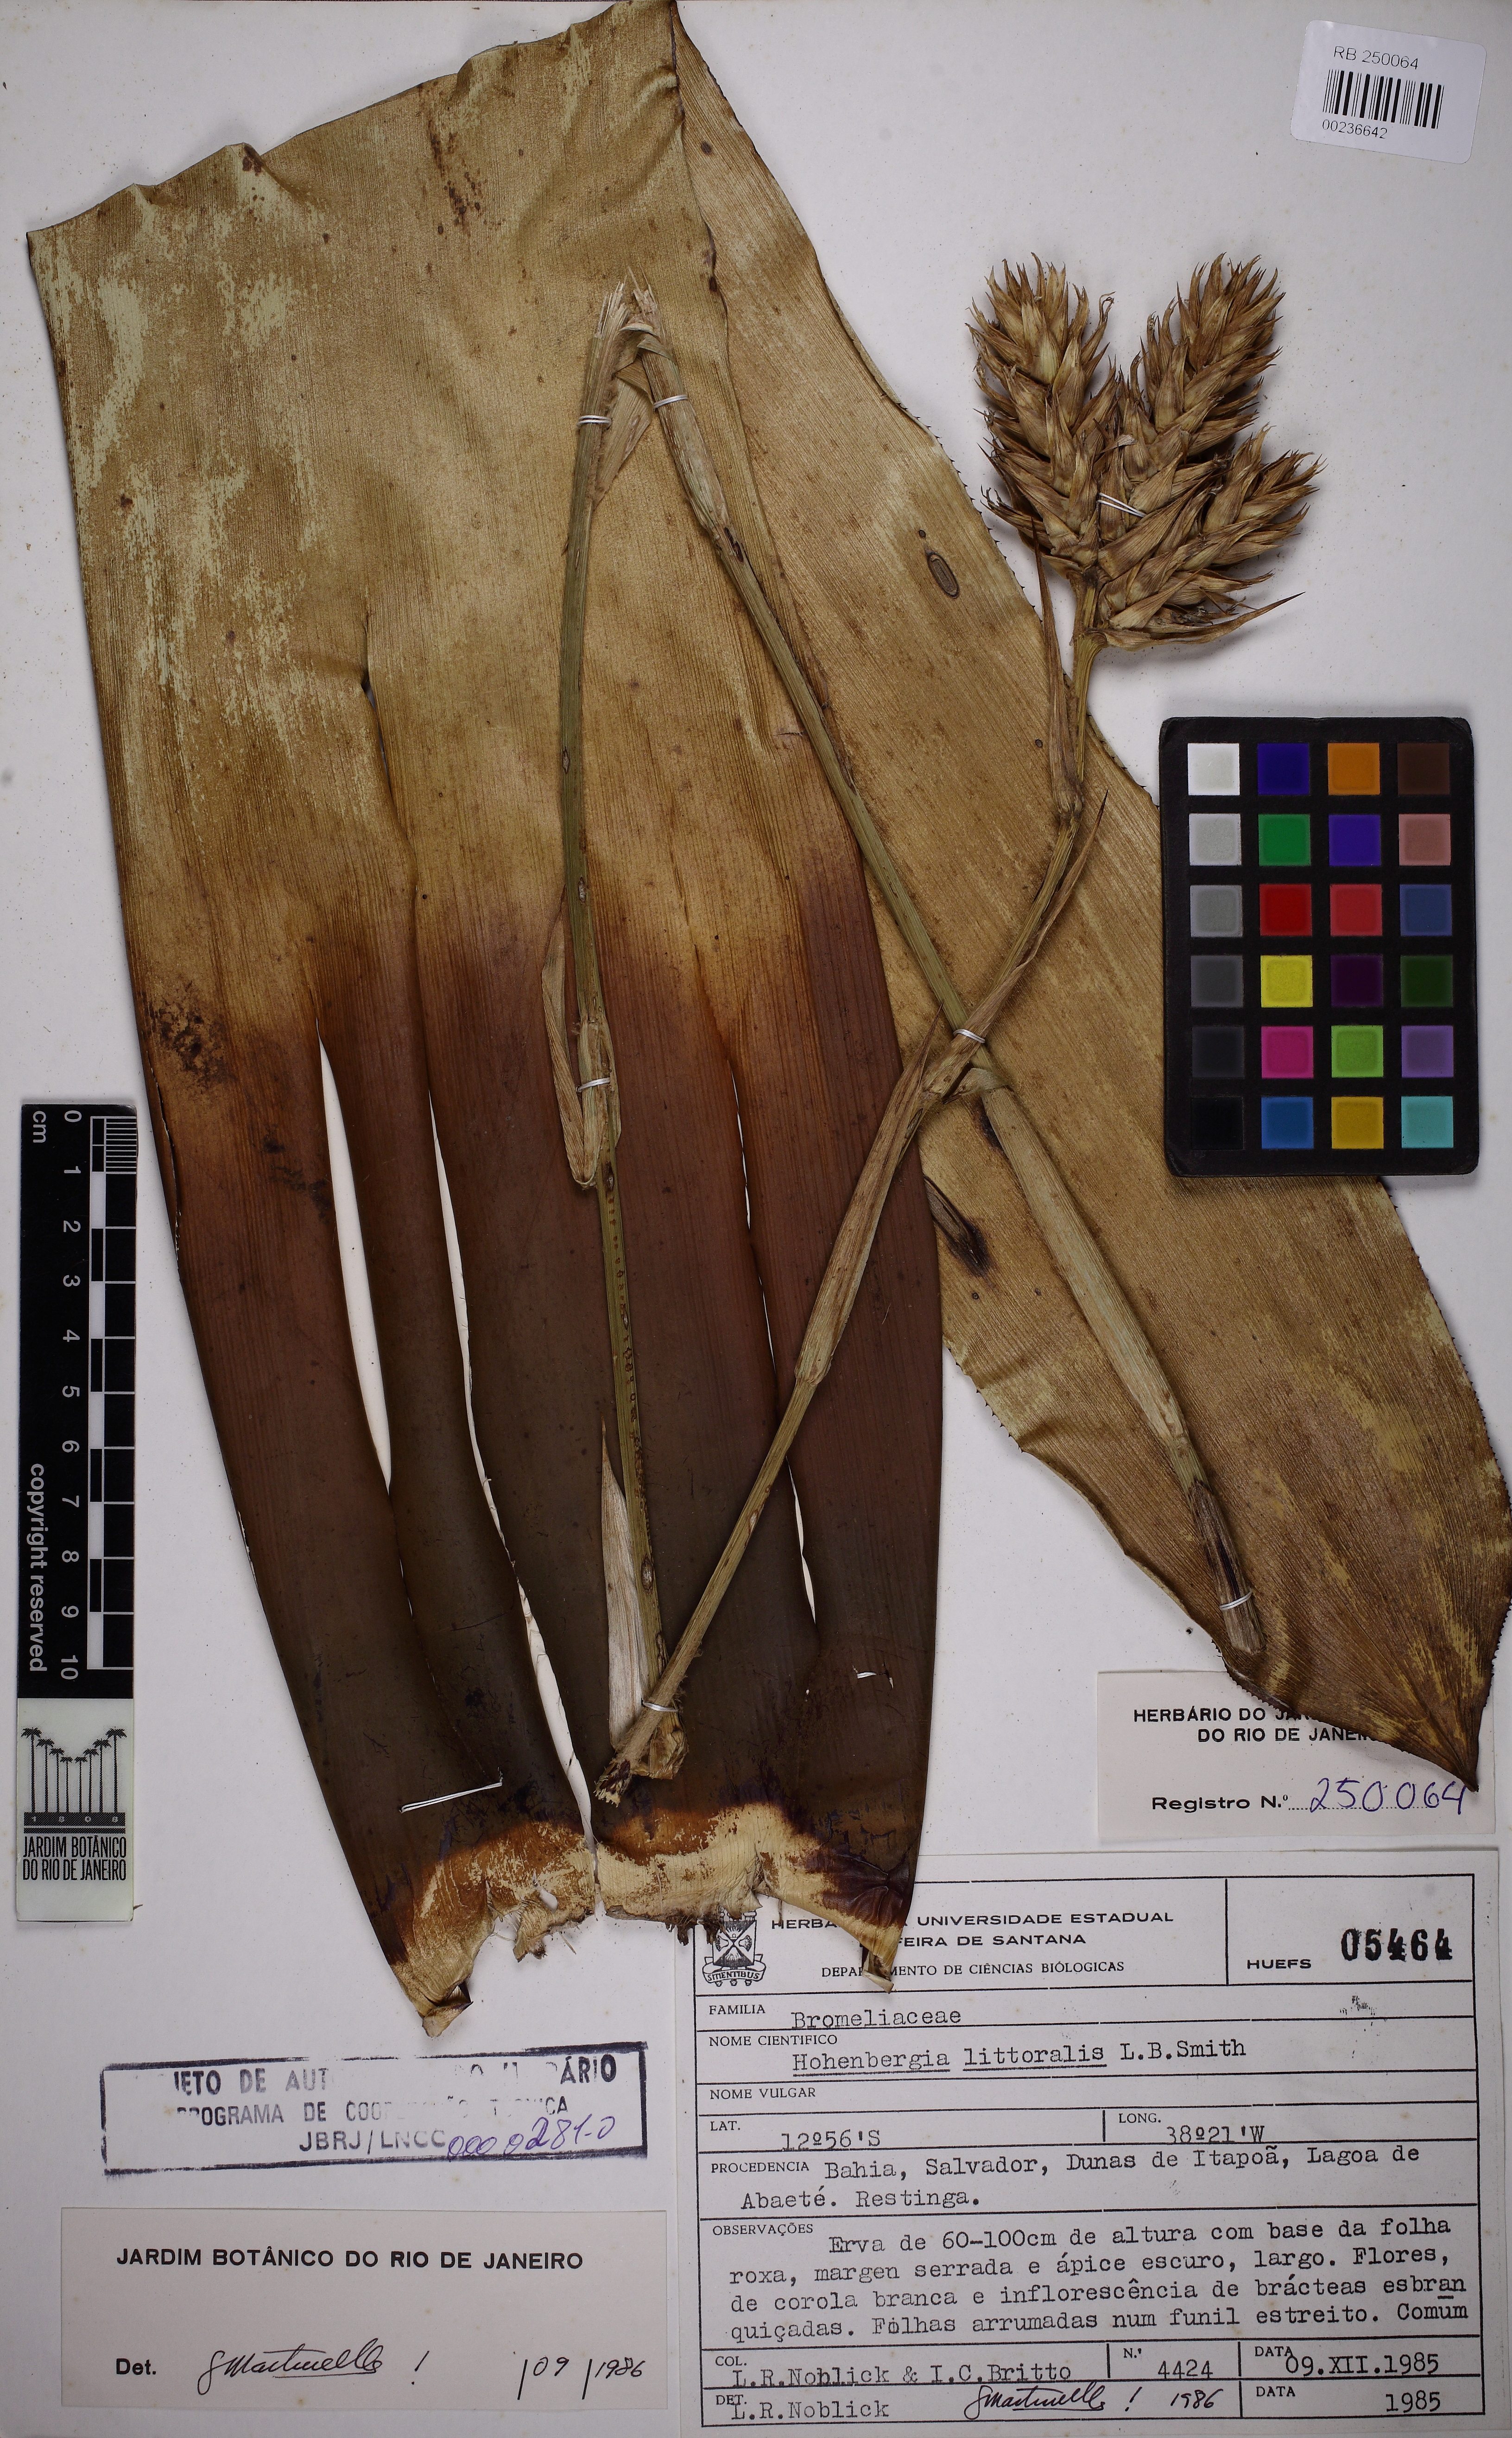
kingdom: Plantae
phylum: Tracheophyta
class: Liliopsida
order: Poales
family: Bromeliaceae
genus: Hohenbergia
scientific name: Hohenbergia littoralis
